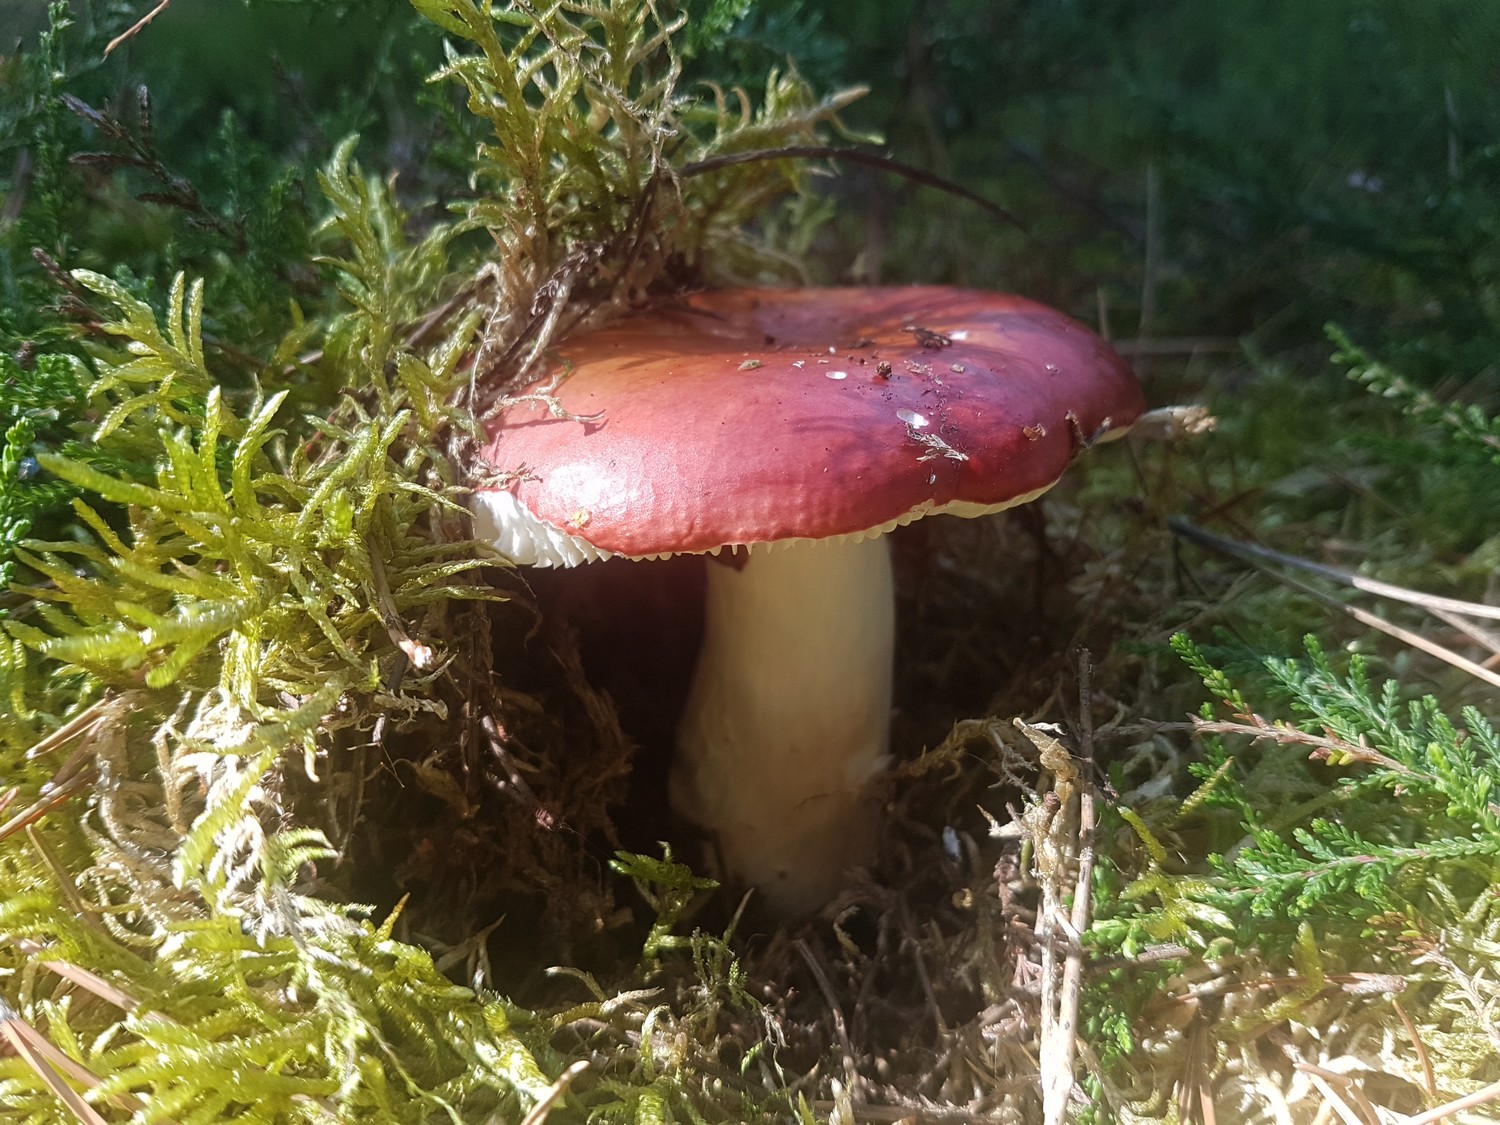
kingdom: Fungi
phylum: Basidiomycota
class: Agaricomycetes
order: Russulales
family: Russulaceae
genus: Russula
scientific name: Russula paludosa
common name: prægtig skørhat
